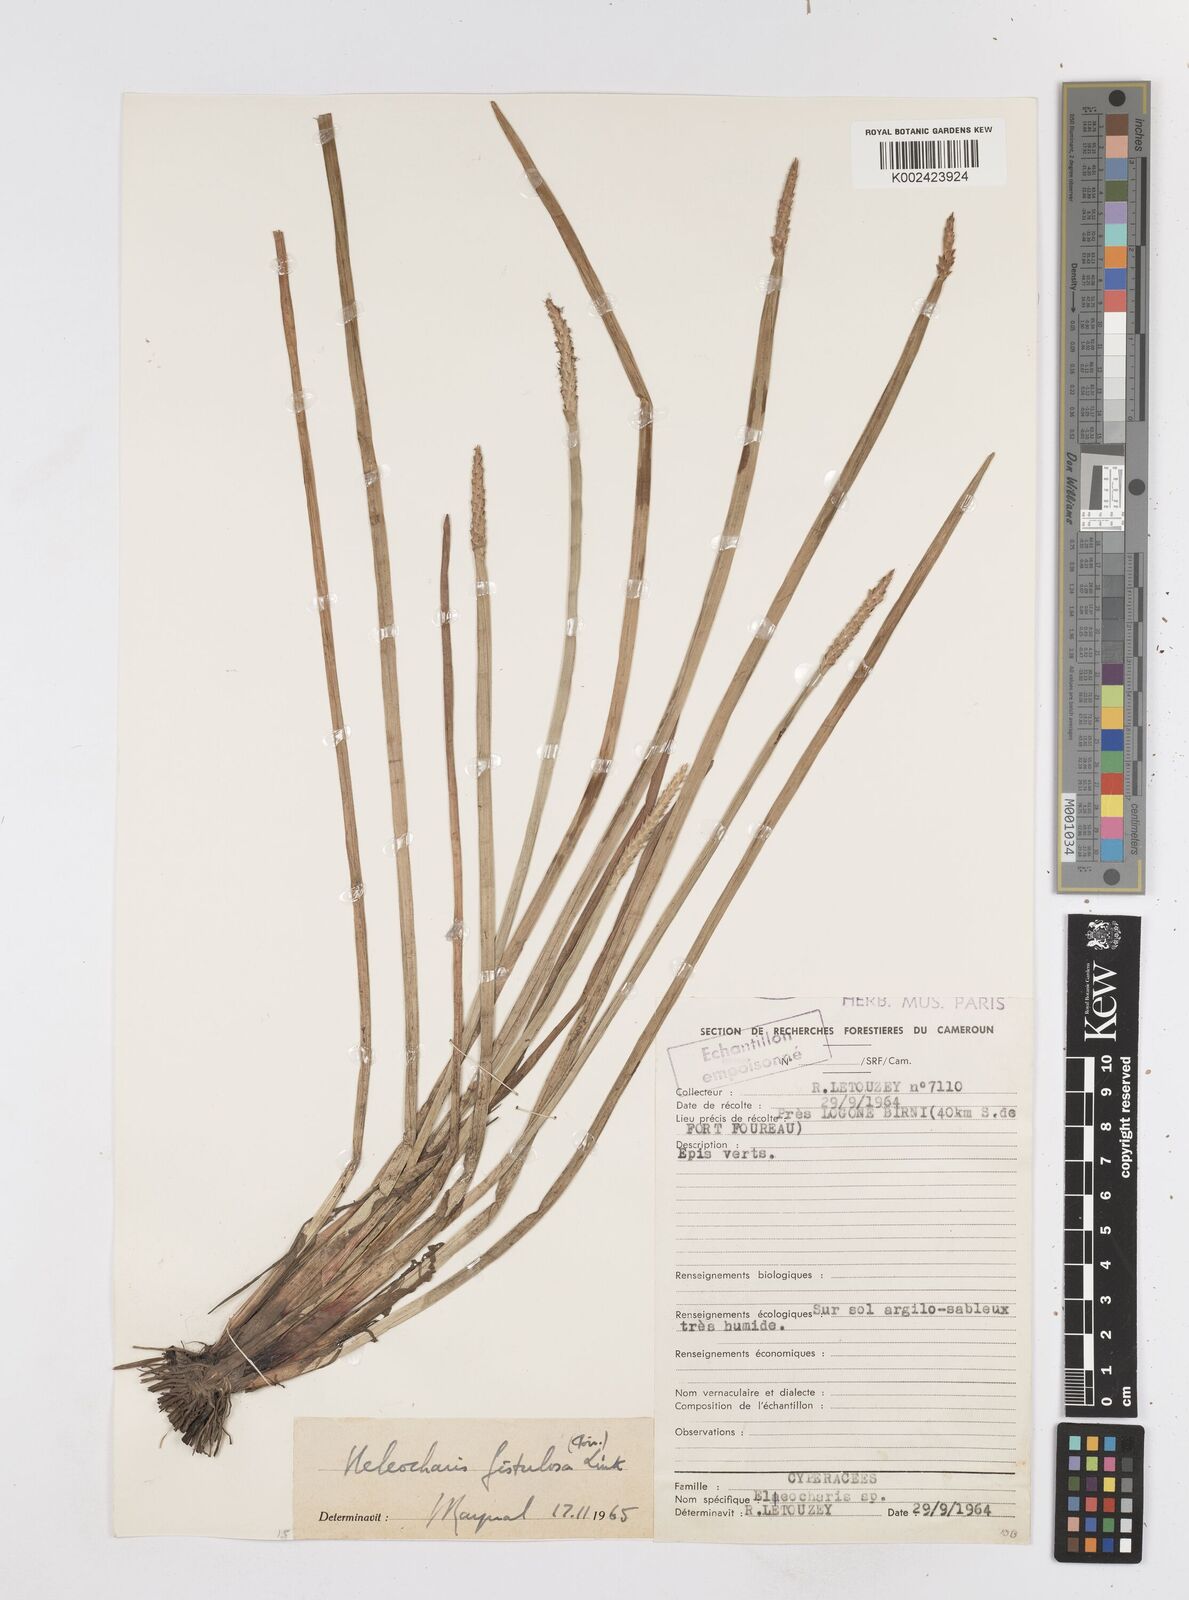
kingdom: Plantae
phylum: Tracheophyta
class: Liliopsida
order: Poales
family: Cyperaceae
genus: Eleocharis
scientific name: Eleocharis acutangula
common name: Acute spikerush
